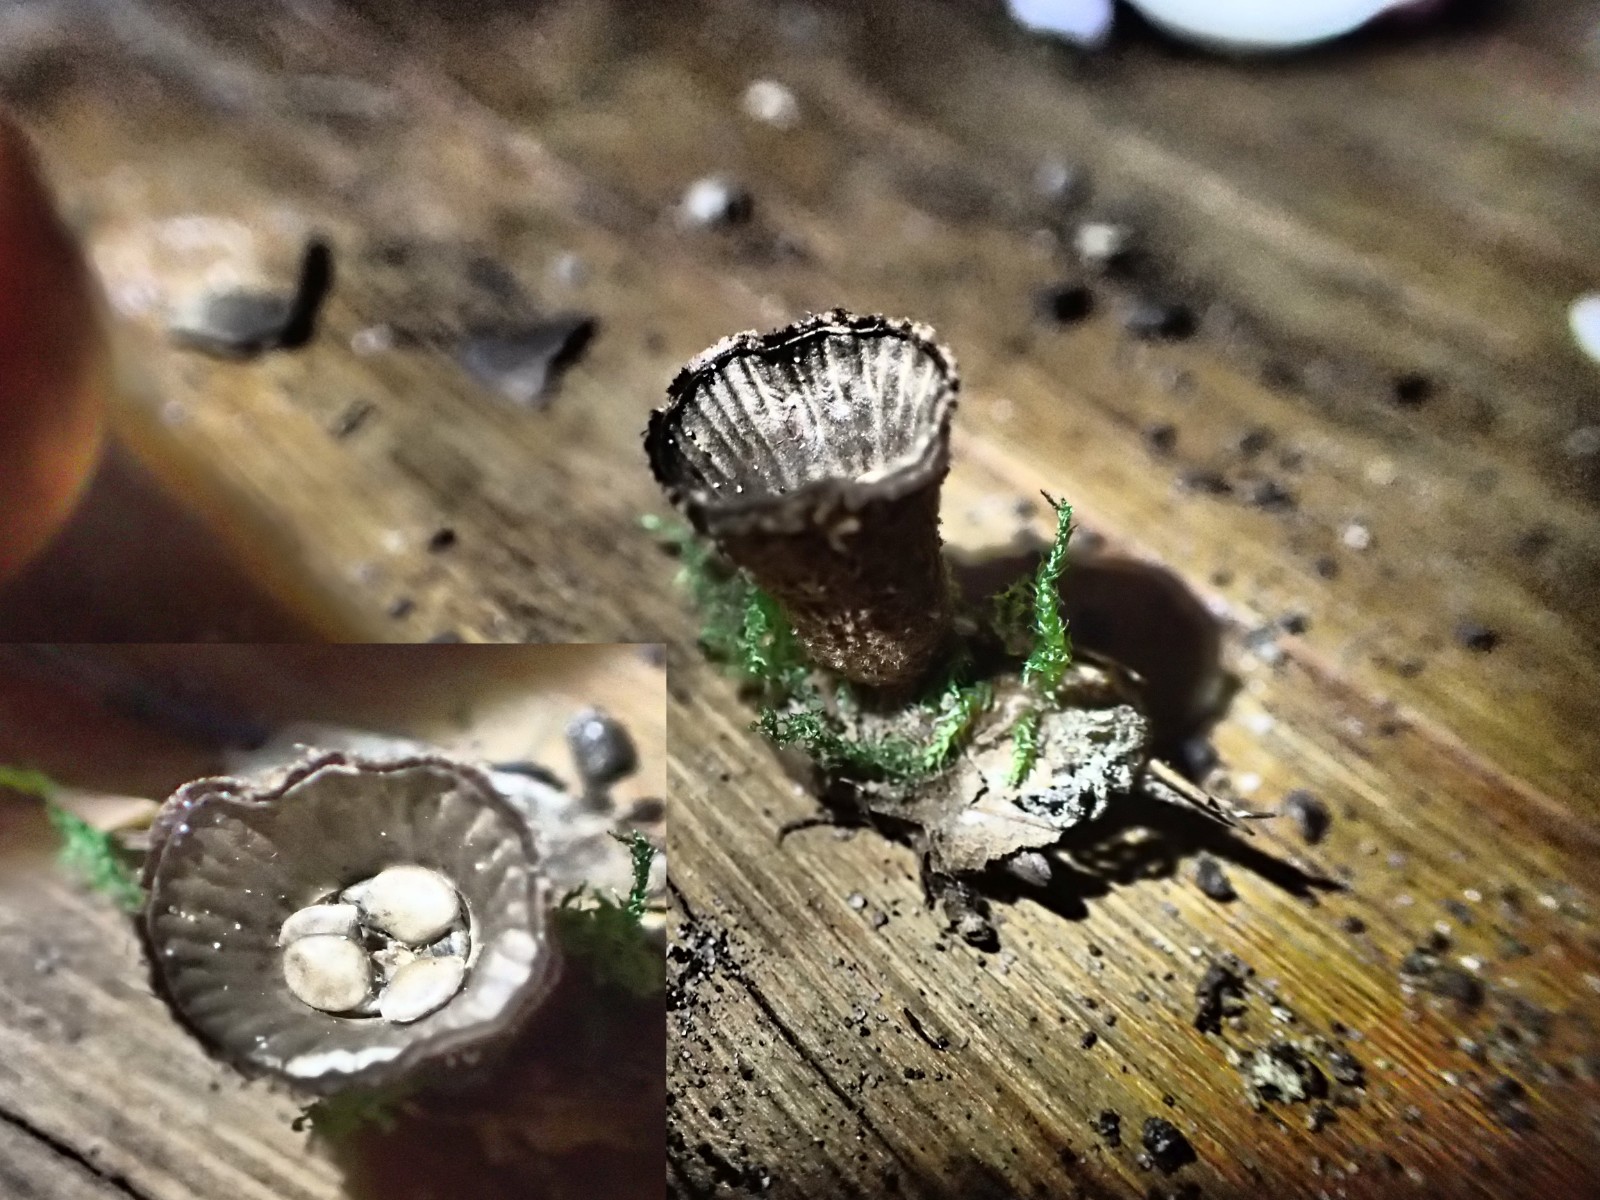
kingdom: Fungi
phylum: Basidiomycota
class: Agaricomycetes
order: Agaricales
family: Agaricaceae
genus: Cyathus
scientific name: Cyathus striatus
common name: stribet redesvamp
